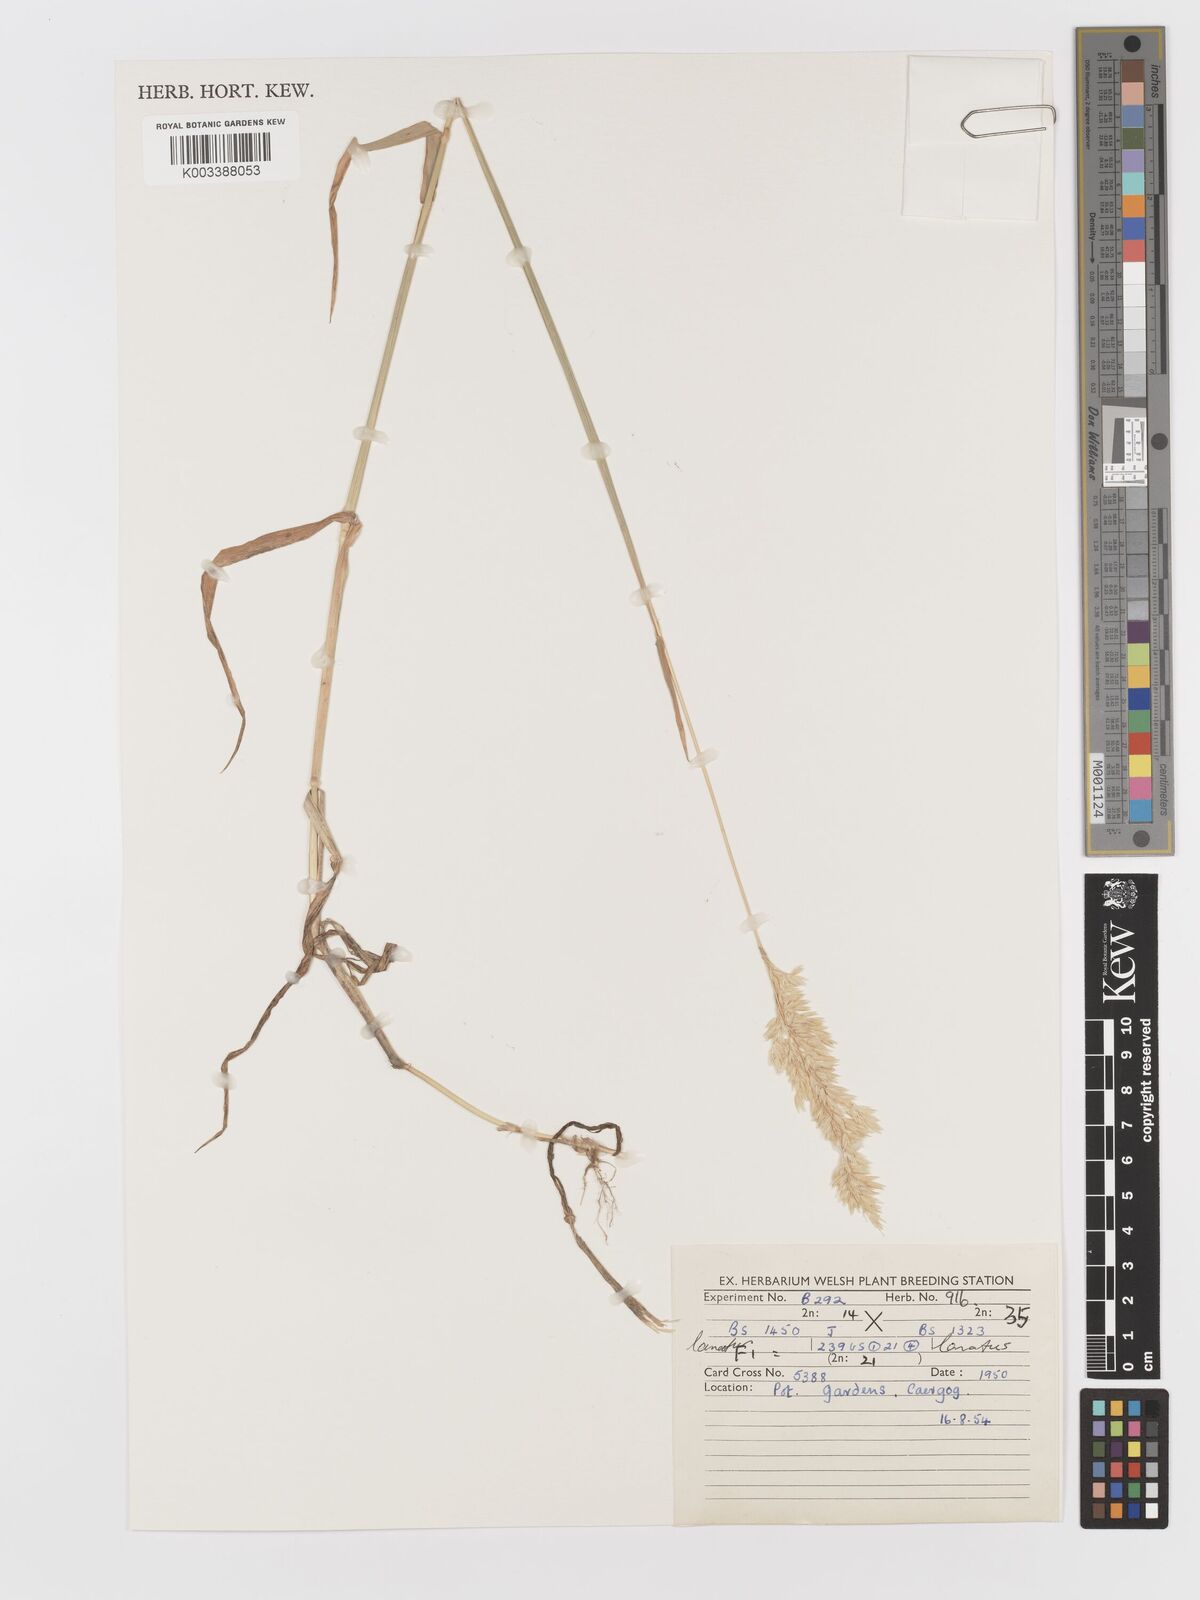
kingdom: Plantae
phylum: Tracheophyta
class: Liliopsida
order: Poales
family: Poaceae
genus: Holcus
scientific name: Holcus lanatus
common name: Yorkshire-fog
